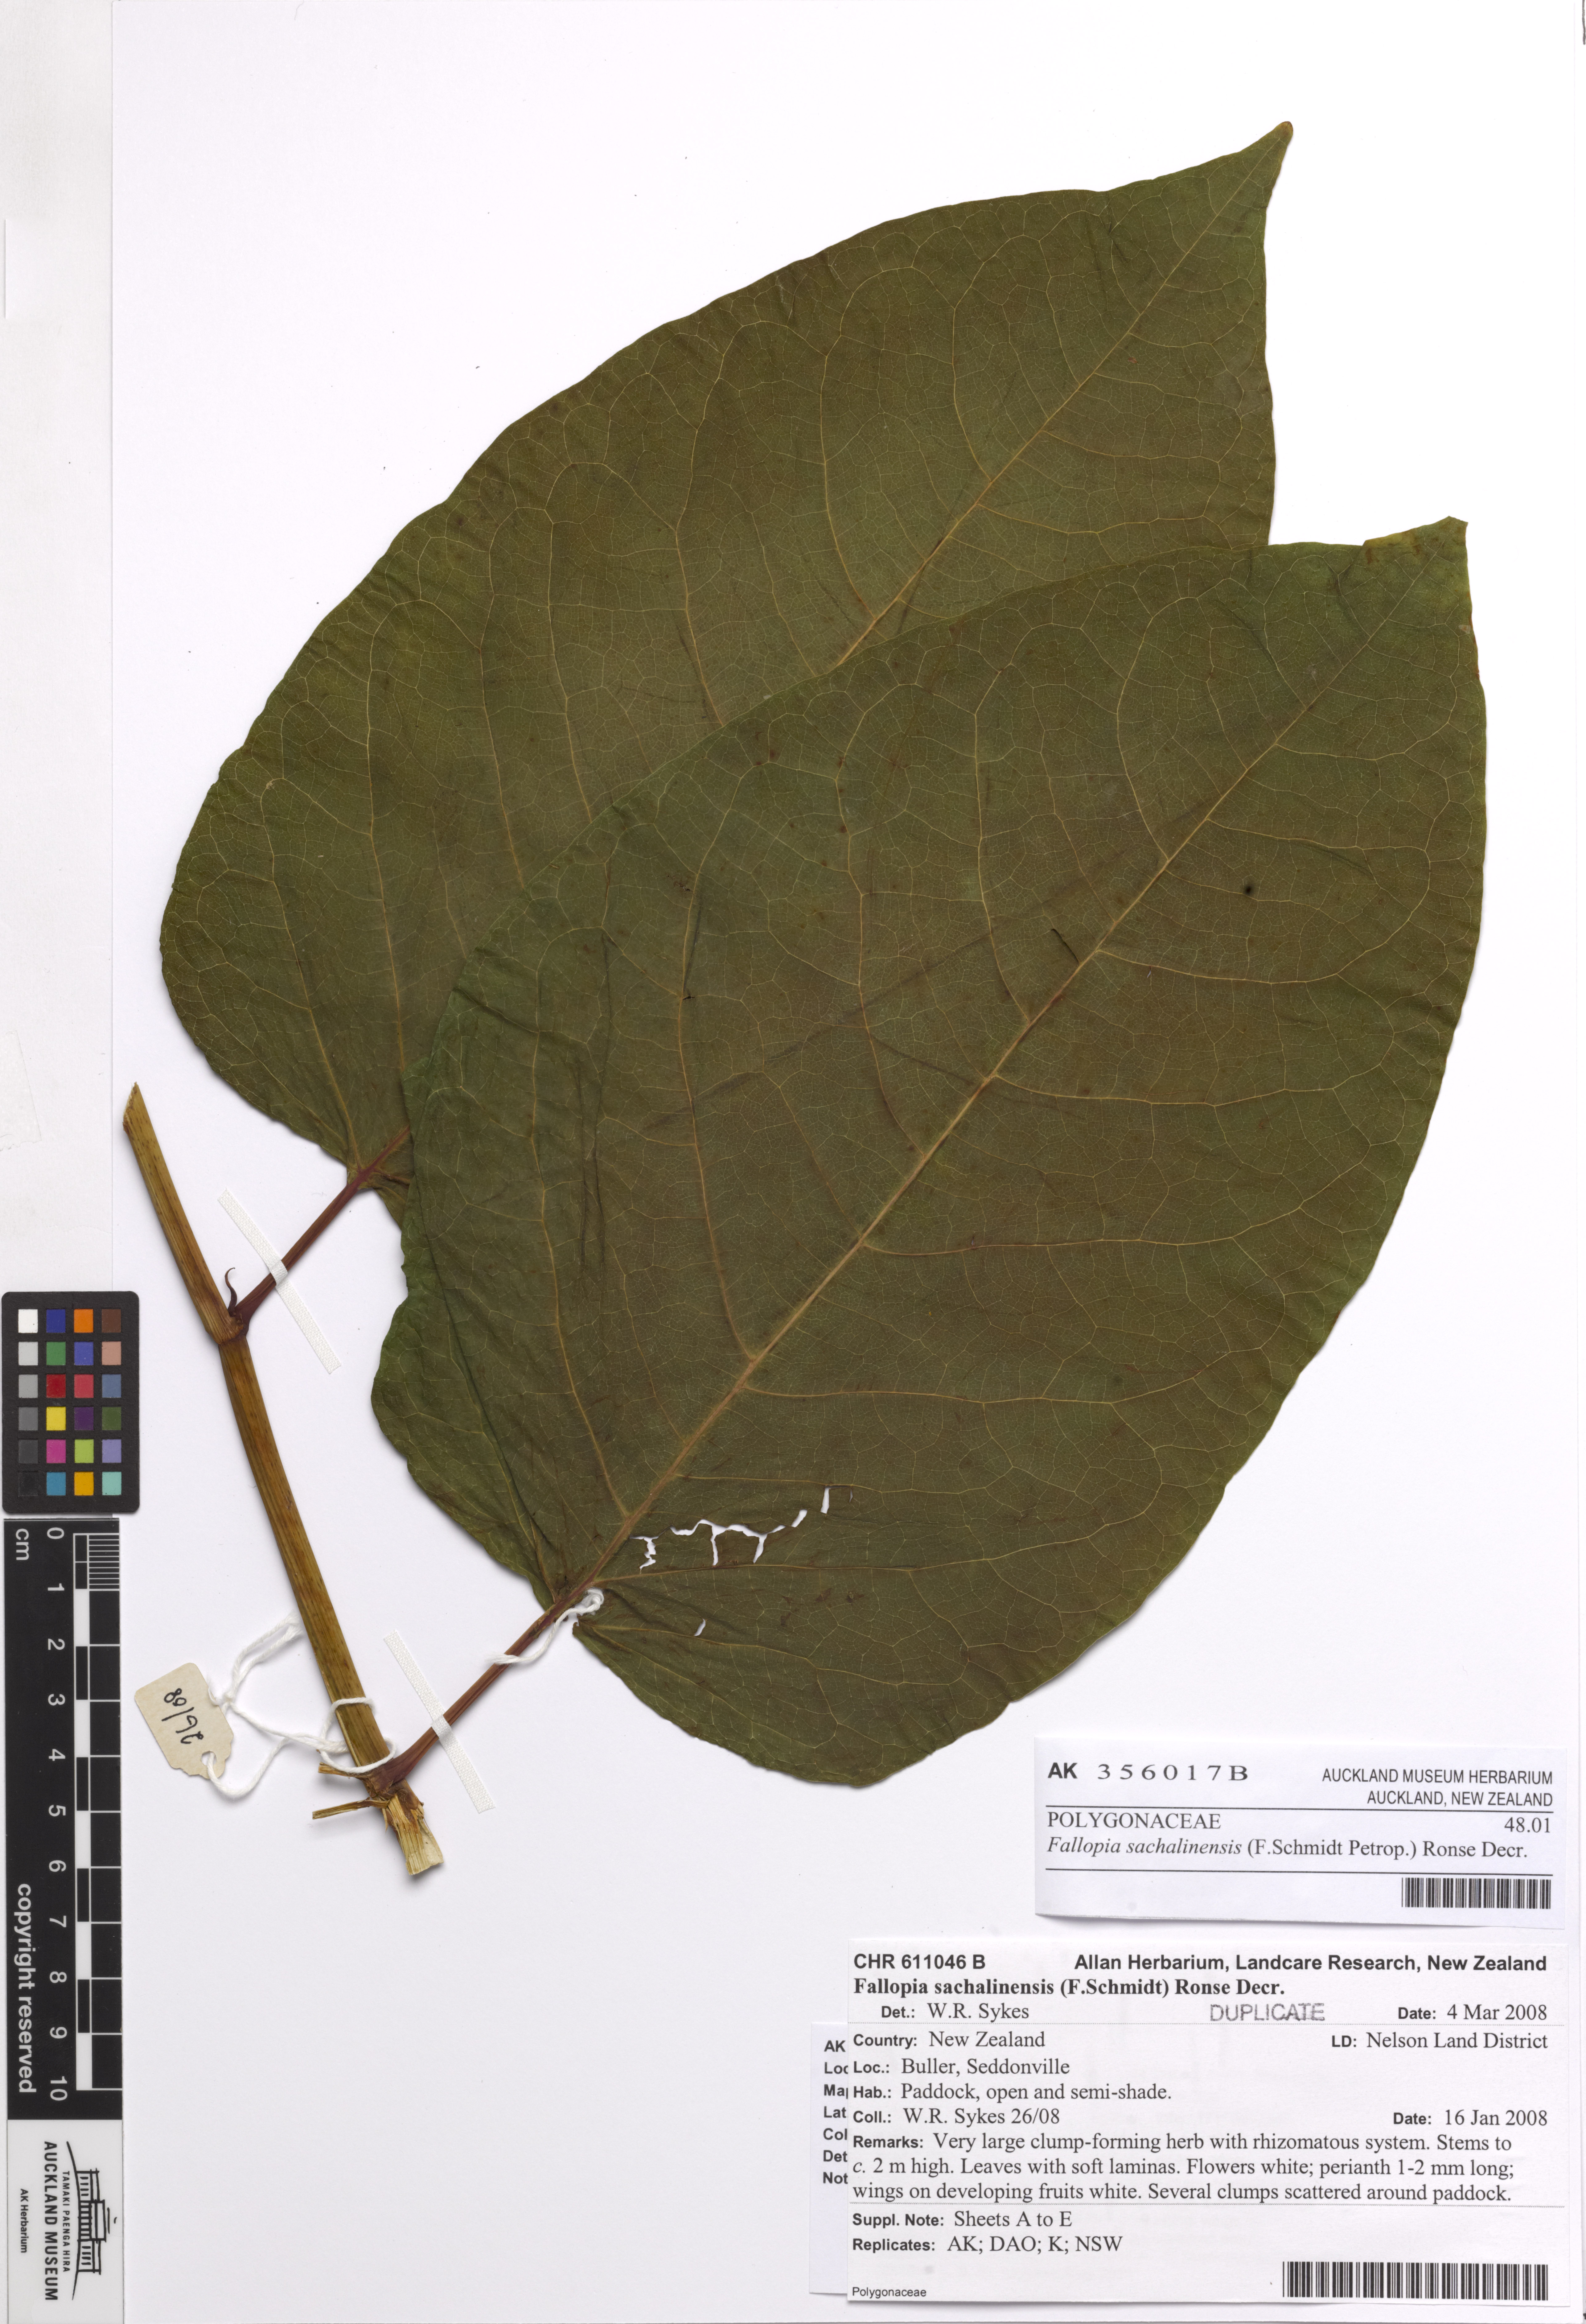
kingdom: Plantae
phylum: Tracheophyta
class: Magnoliopsida
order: Caryophyllales
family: Polygonaceae
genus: Reynoutria
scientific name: Reynoutria sachalinensis
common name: Giant knotweed
